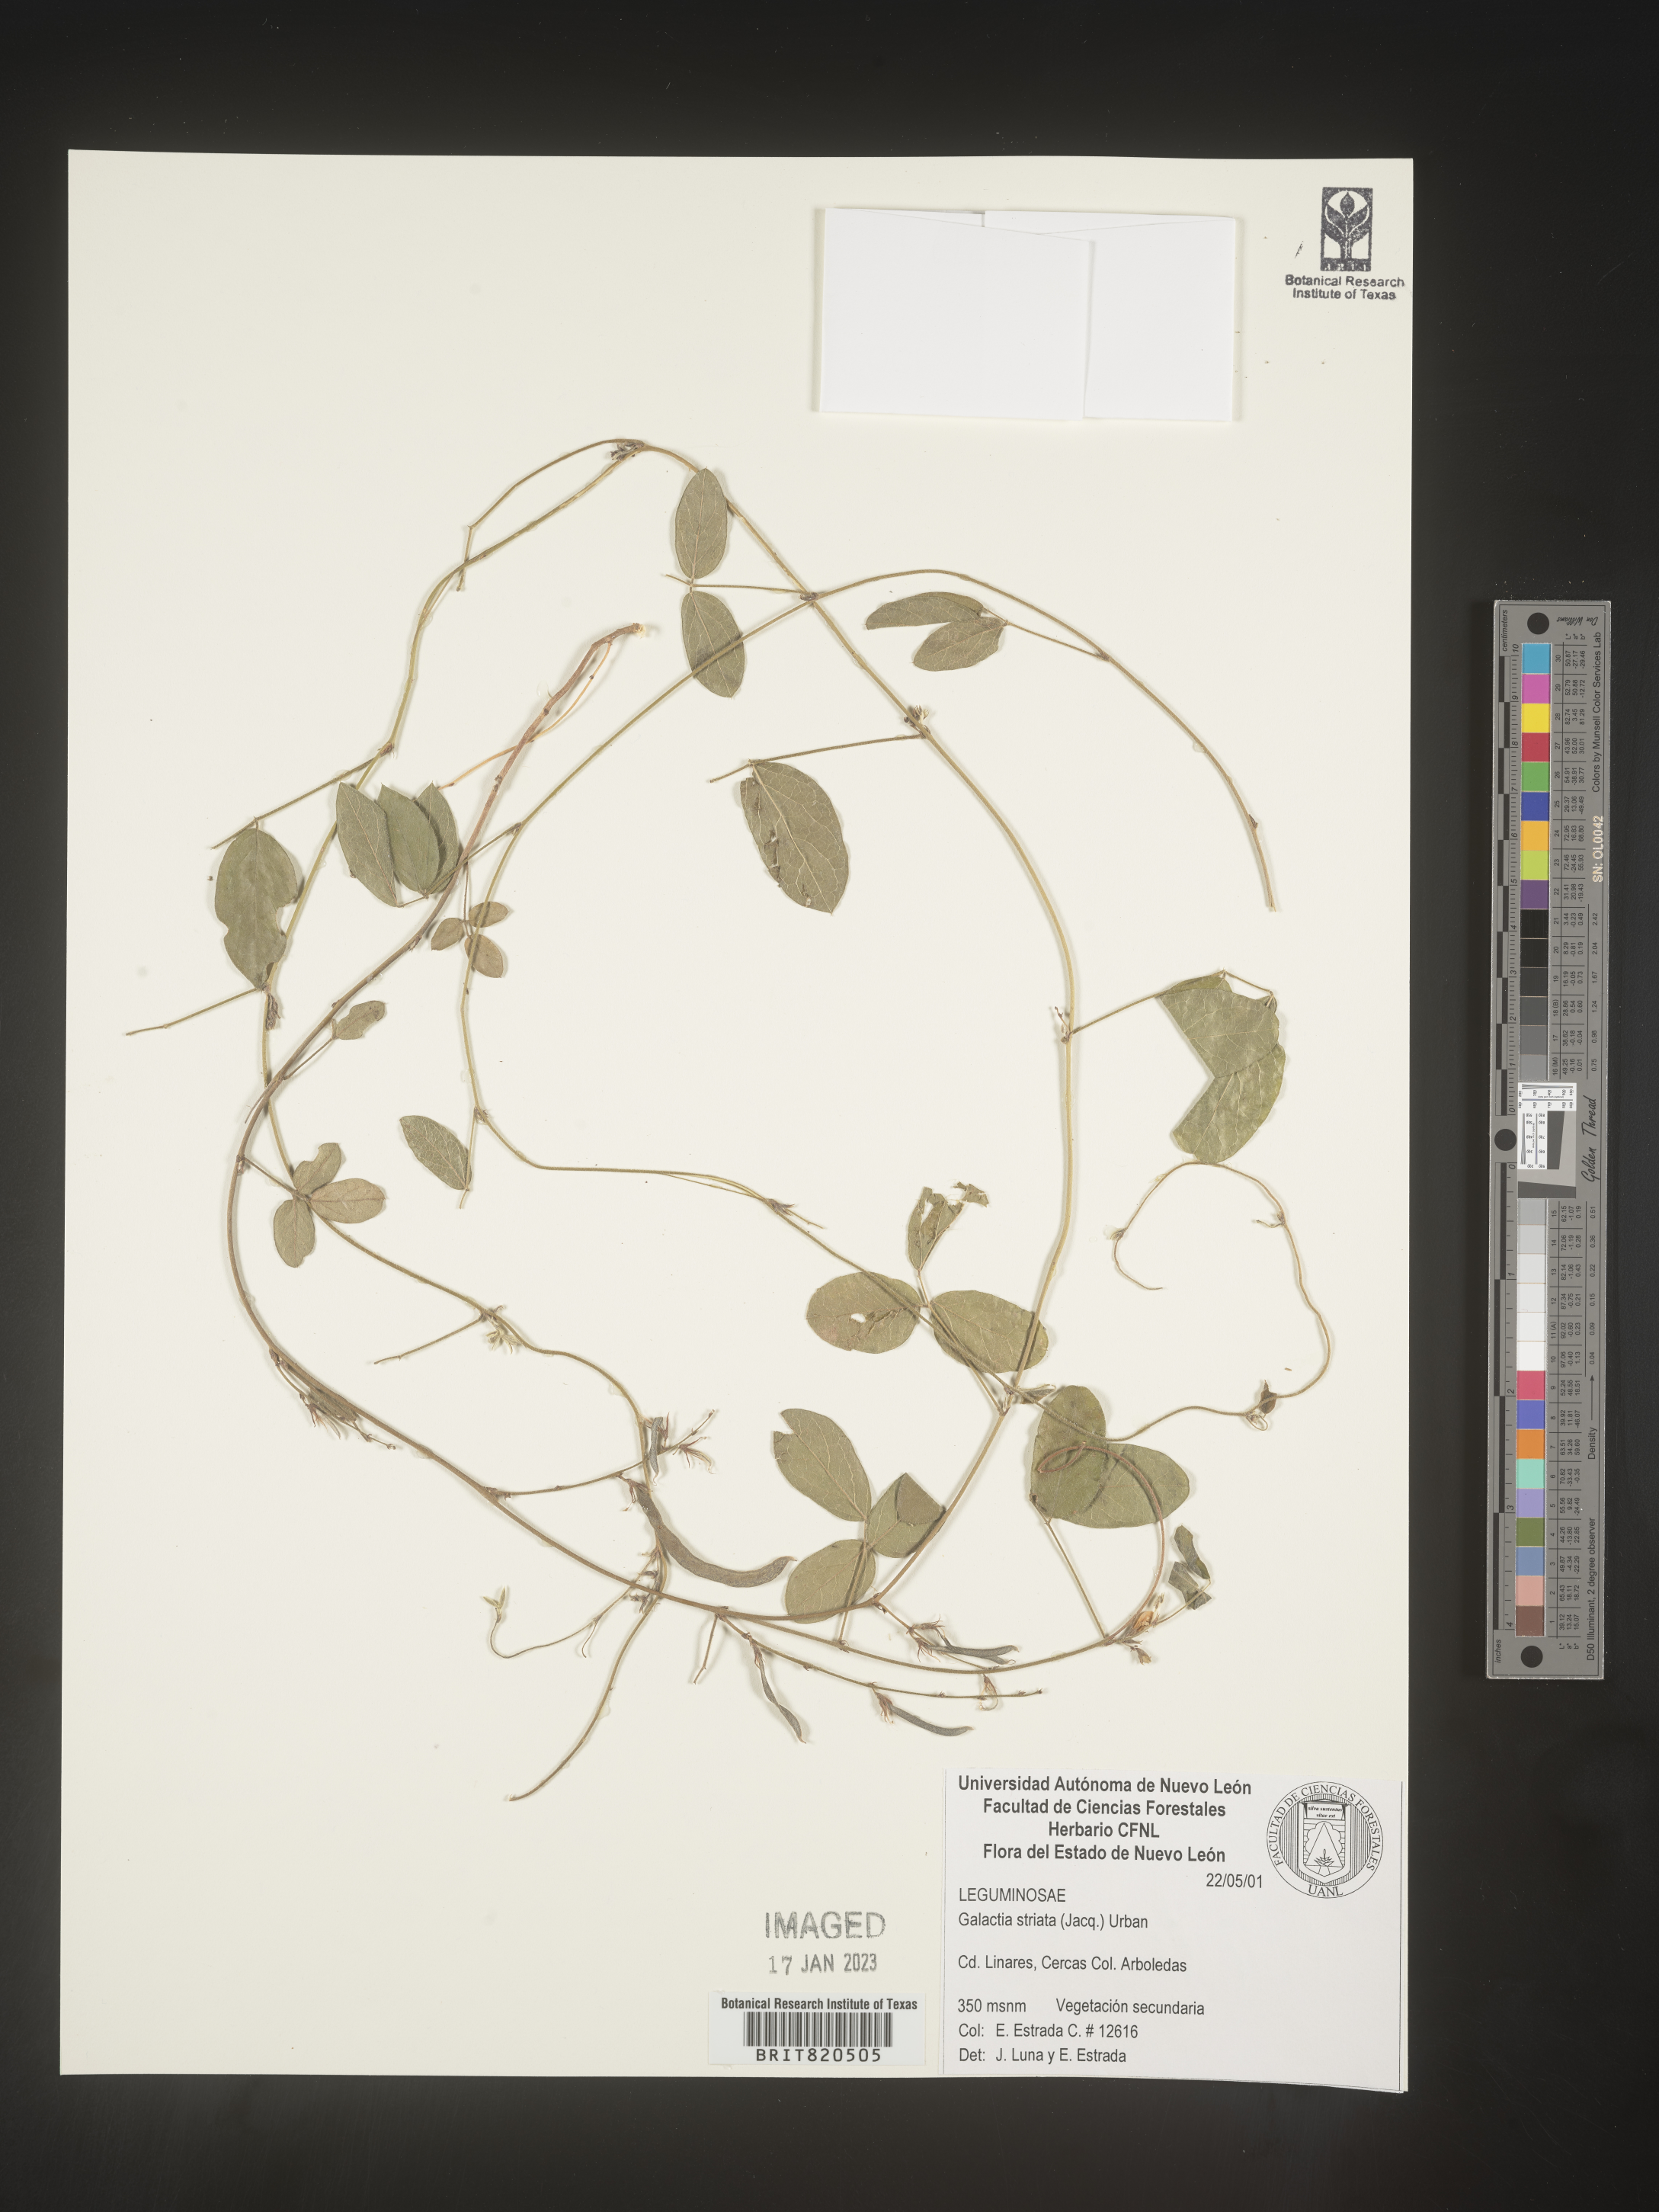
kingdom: Plantae
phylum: Tracheophyta
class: Magnoliopsida
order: Fabales
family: Fabaceae
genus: Galactia
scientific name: Galactia
